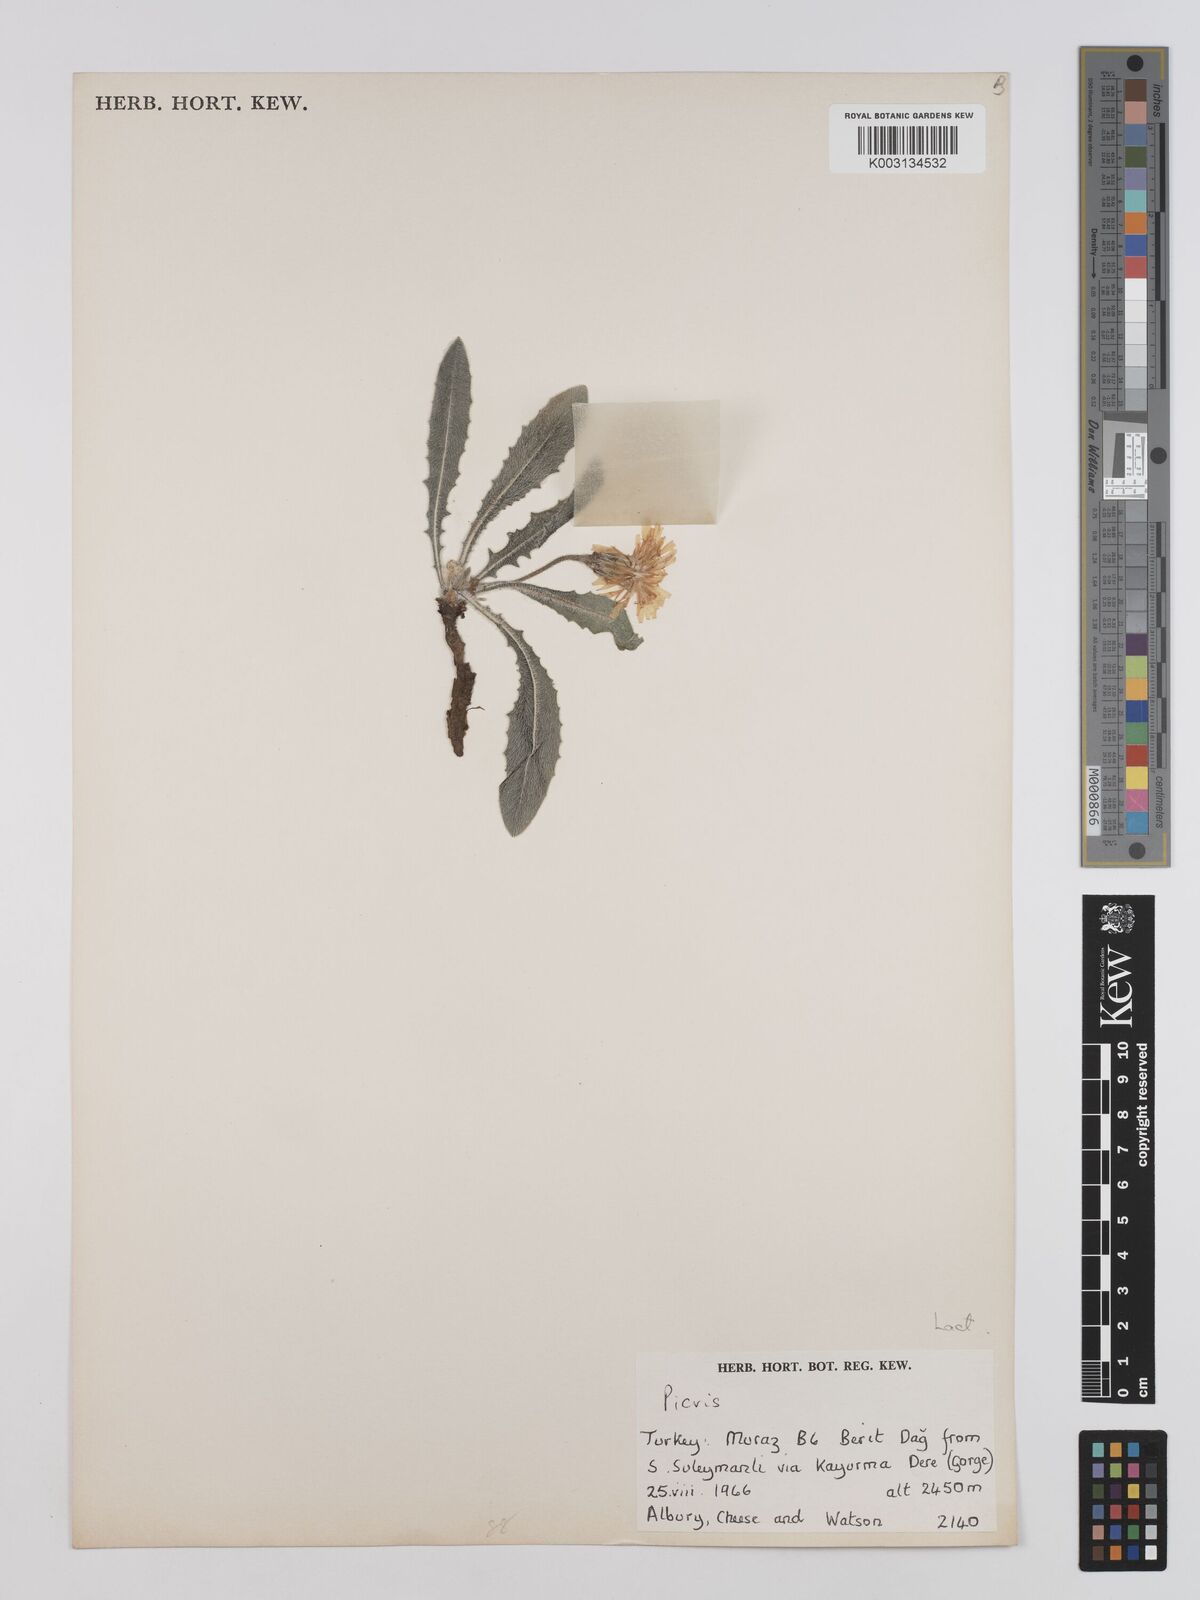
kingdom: Plantae
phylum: Tracheophyta
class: Magnoliopsida
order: Asterales
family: Asteraceae
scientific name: Asteraceae
